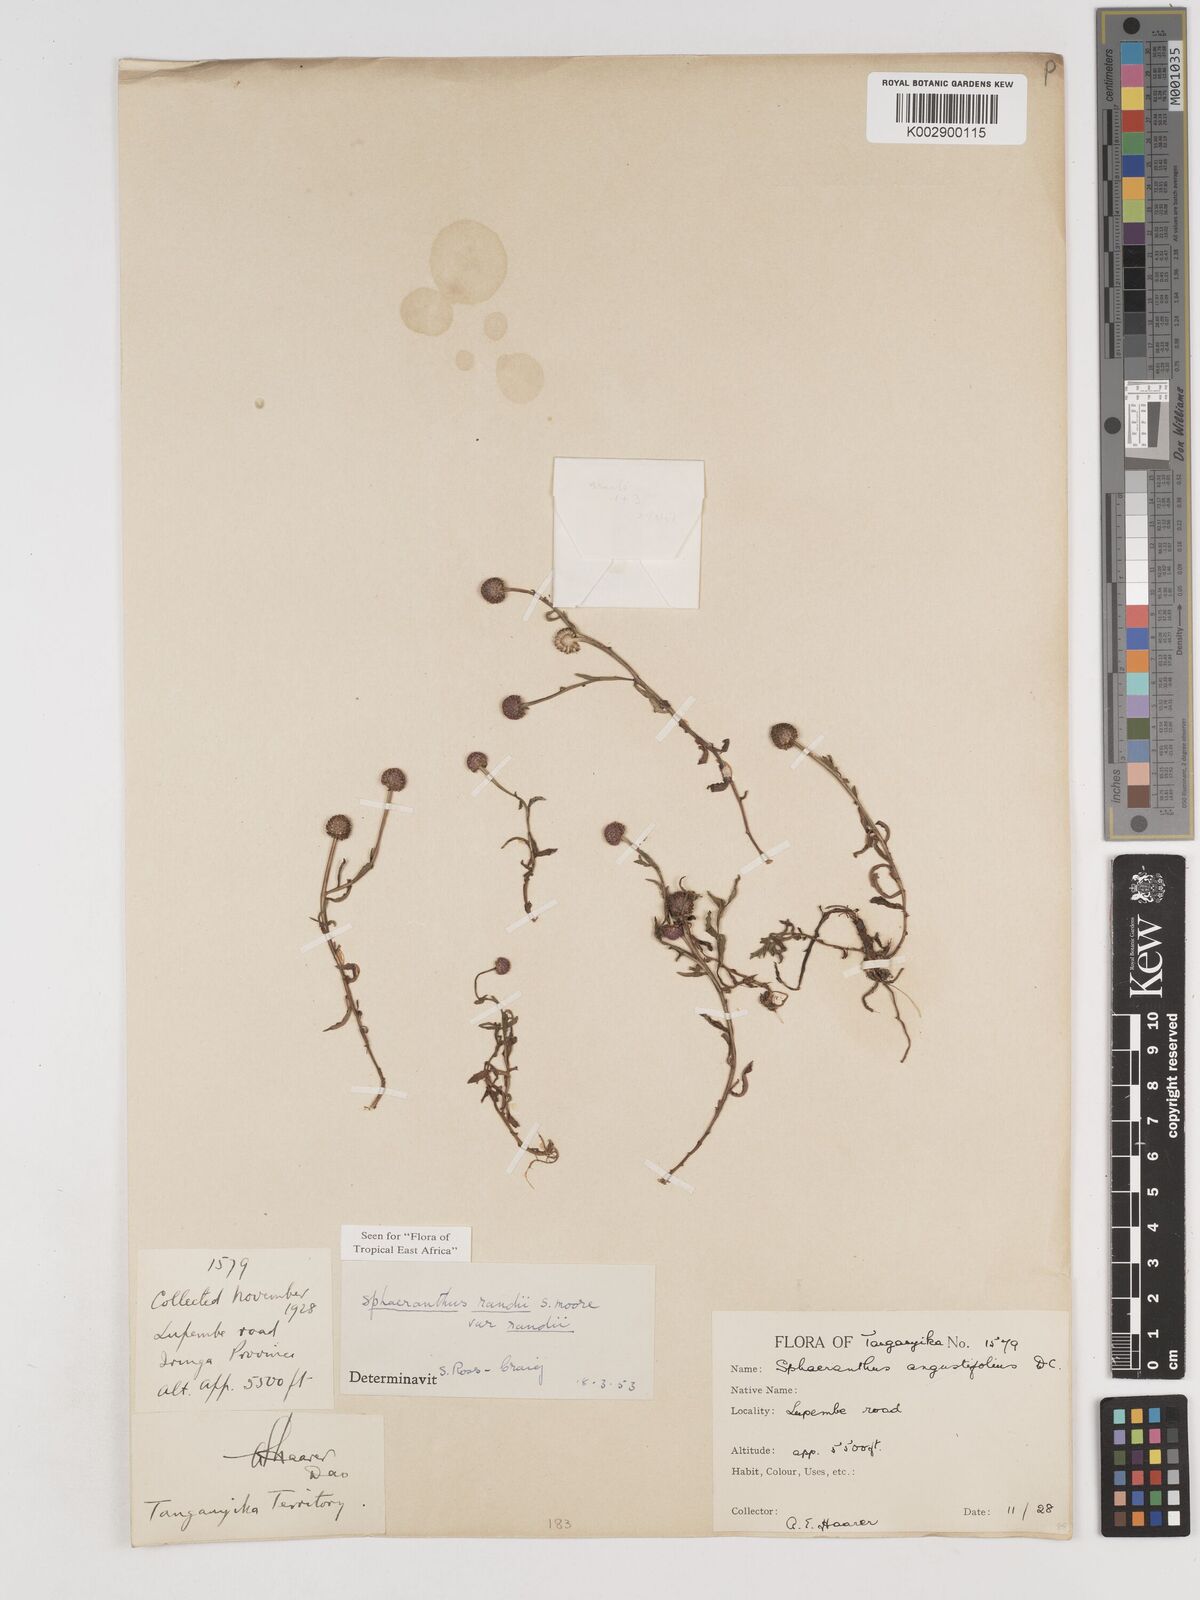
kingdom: Plantae
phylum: Tracheophyta
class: Magnoliopsida
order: Asterales
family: Asteraceae
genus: Sphaeranthus
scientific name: Sphaeranthus randii
